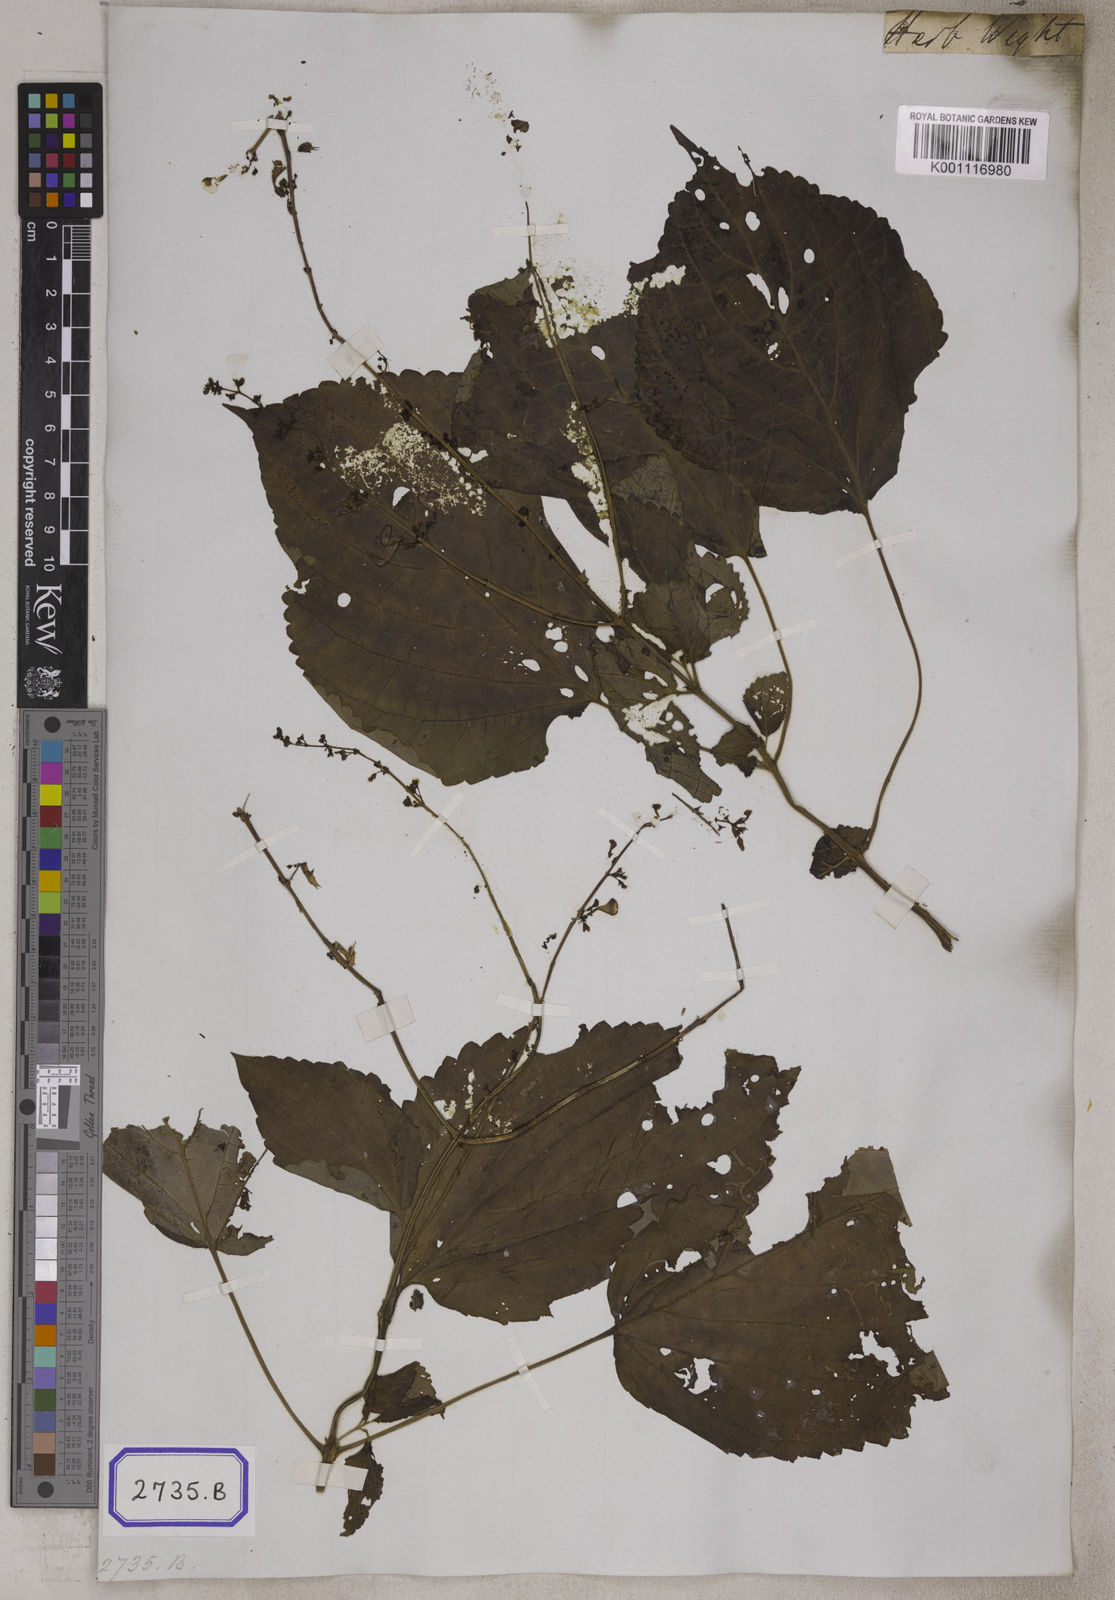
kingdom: Plantae
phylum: Tracheophyta
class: Magnoliopsida
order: Lamiales
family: Lamiaceae
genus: Coleus
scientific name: Coleus malabaricus
